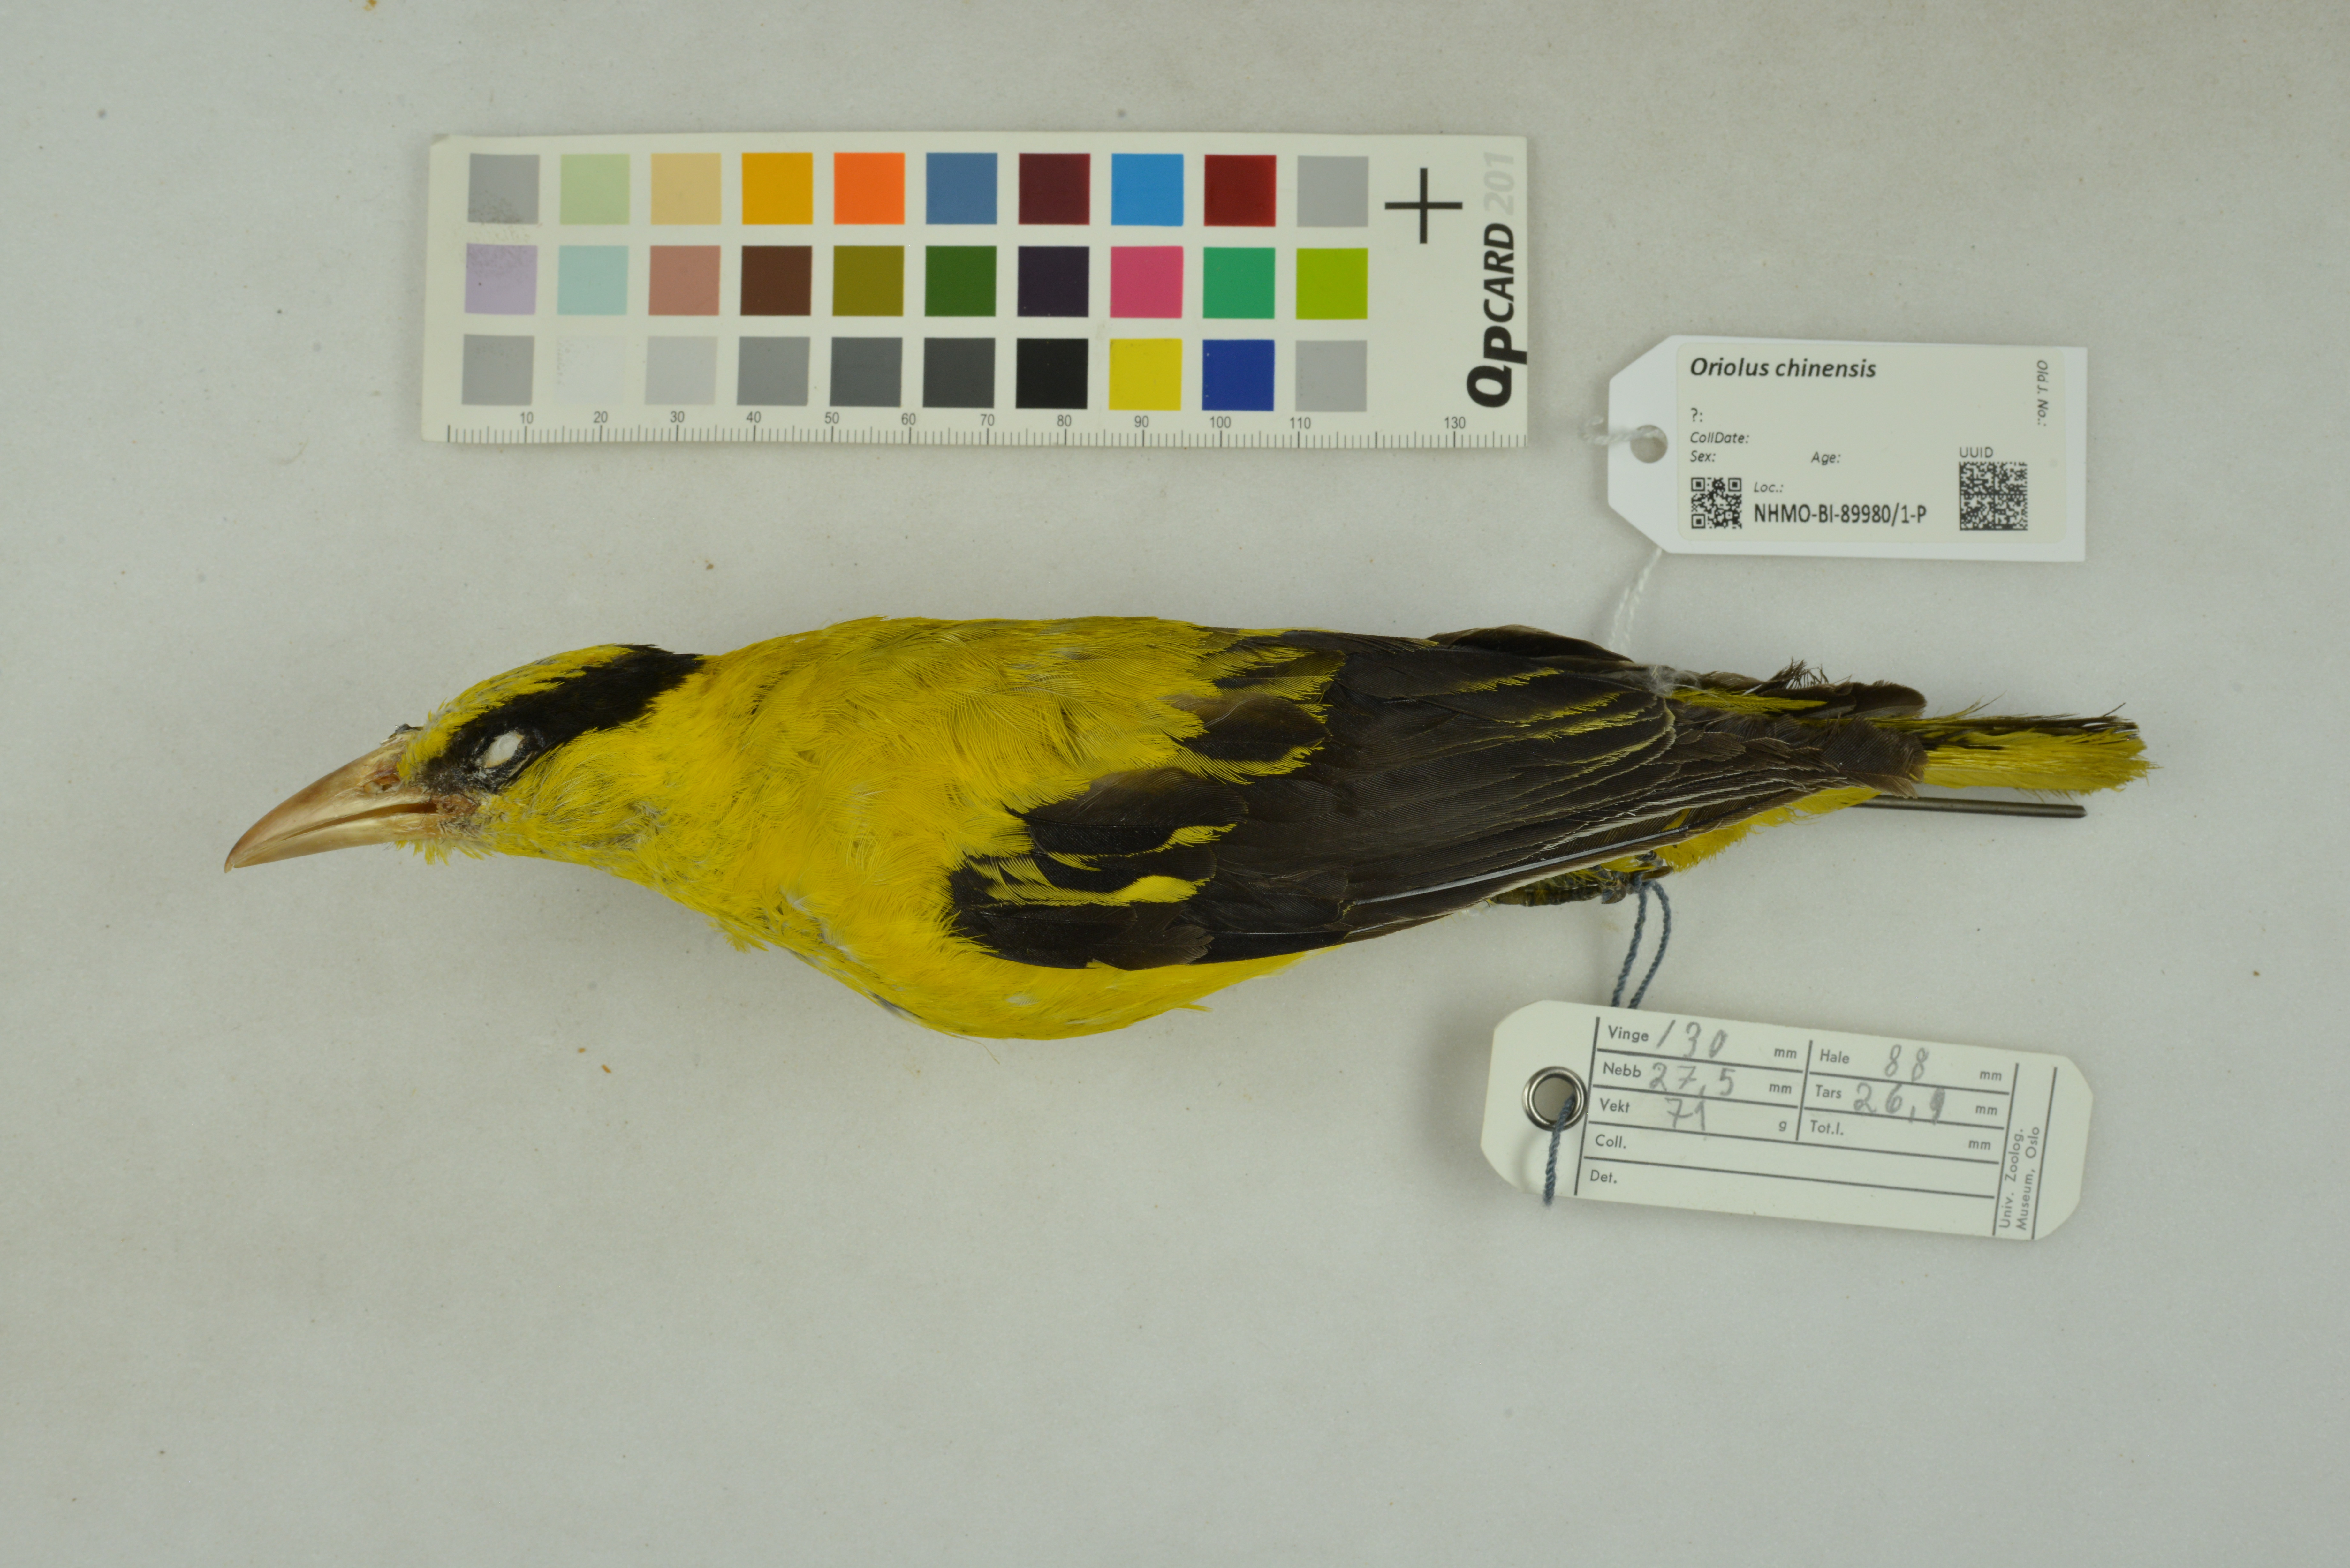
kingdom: Animalia
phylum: Chordata
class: Aves
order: Passeriformes
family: Oriolidae
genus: Oriolus
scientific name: Oriolus chinensis
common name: Black-naped oriole
